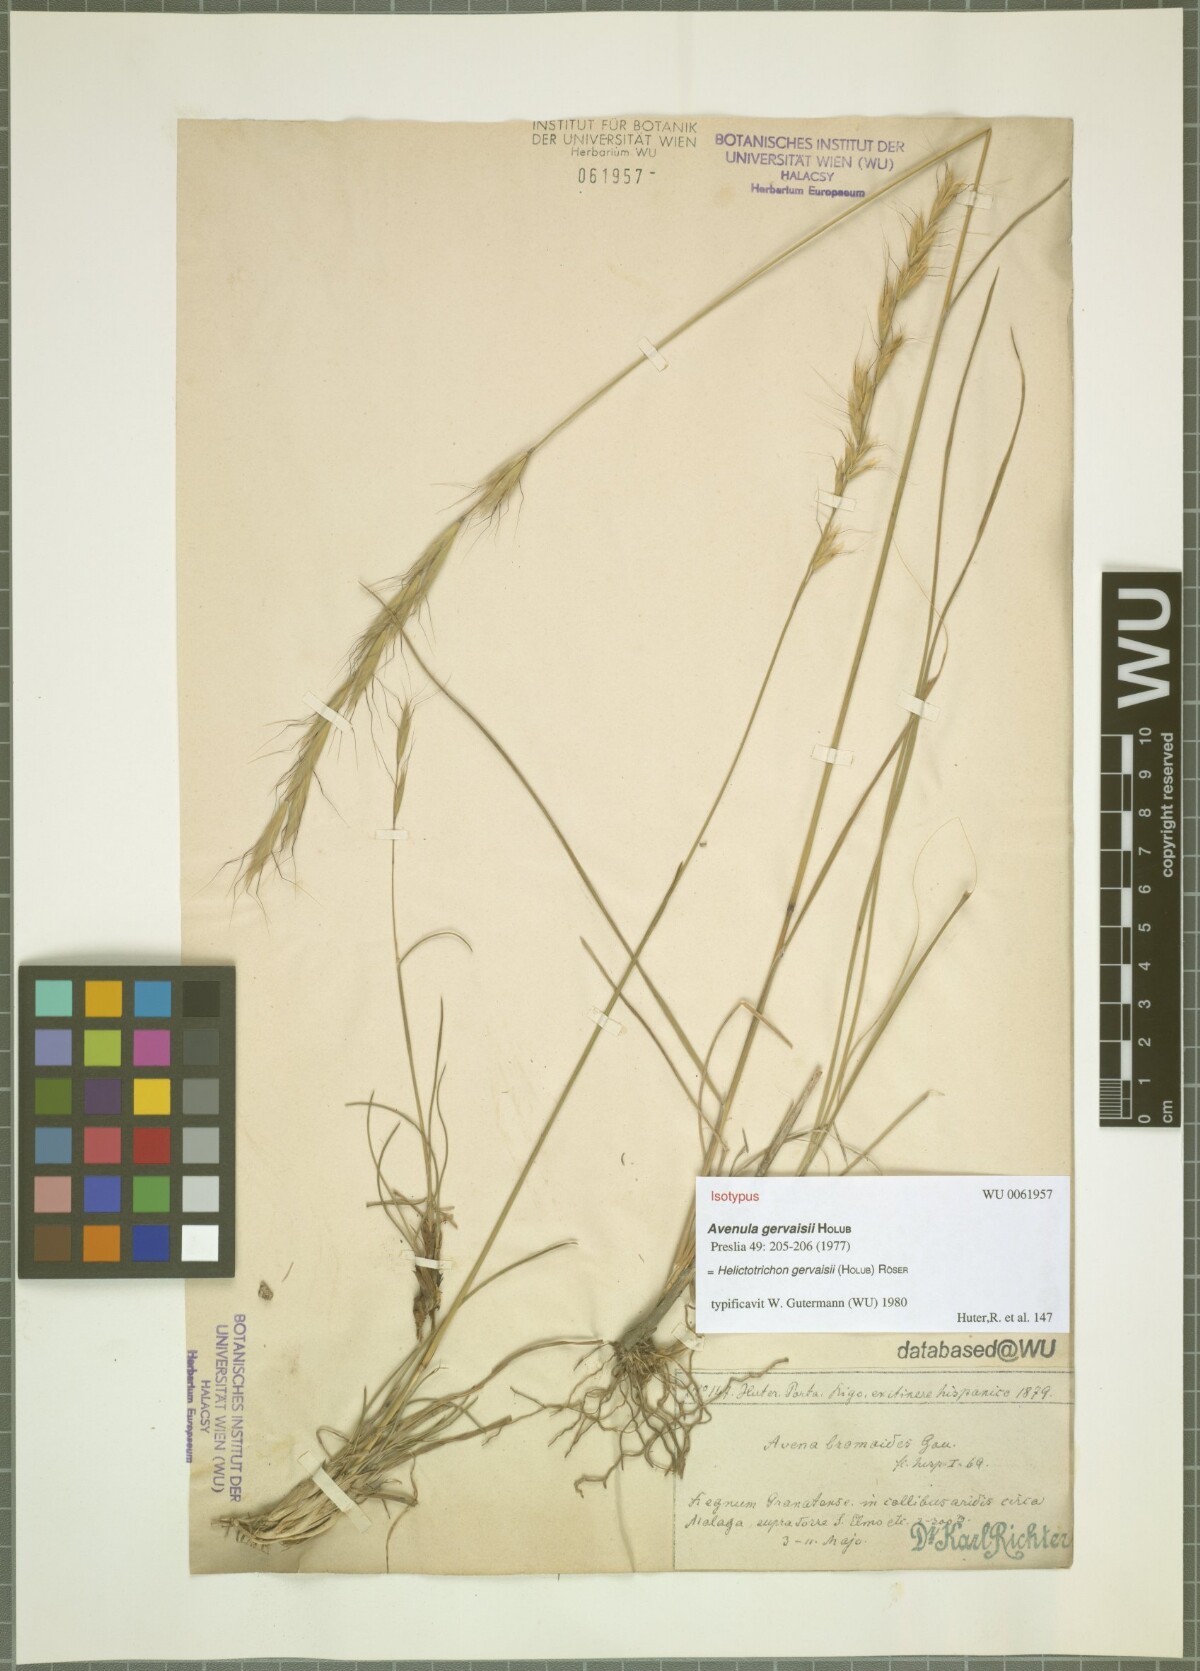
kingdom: Plantae
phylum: Tracheophyta
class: Liliopsida
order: Poales
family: Poaceae
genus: Helictochloa
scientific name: Helictochloa gervaisii
